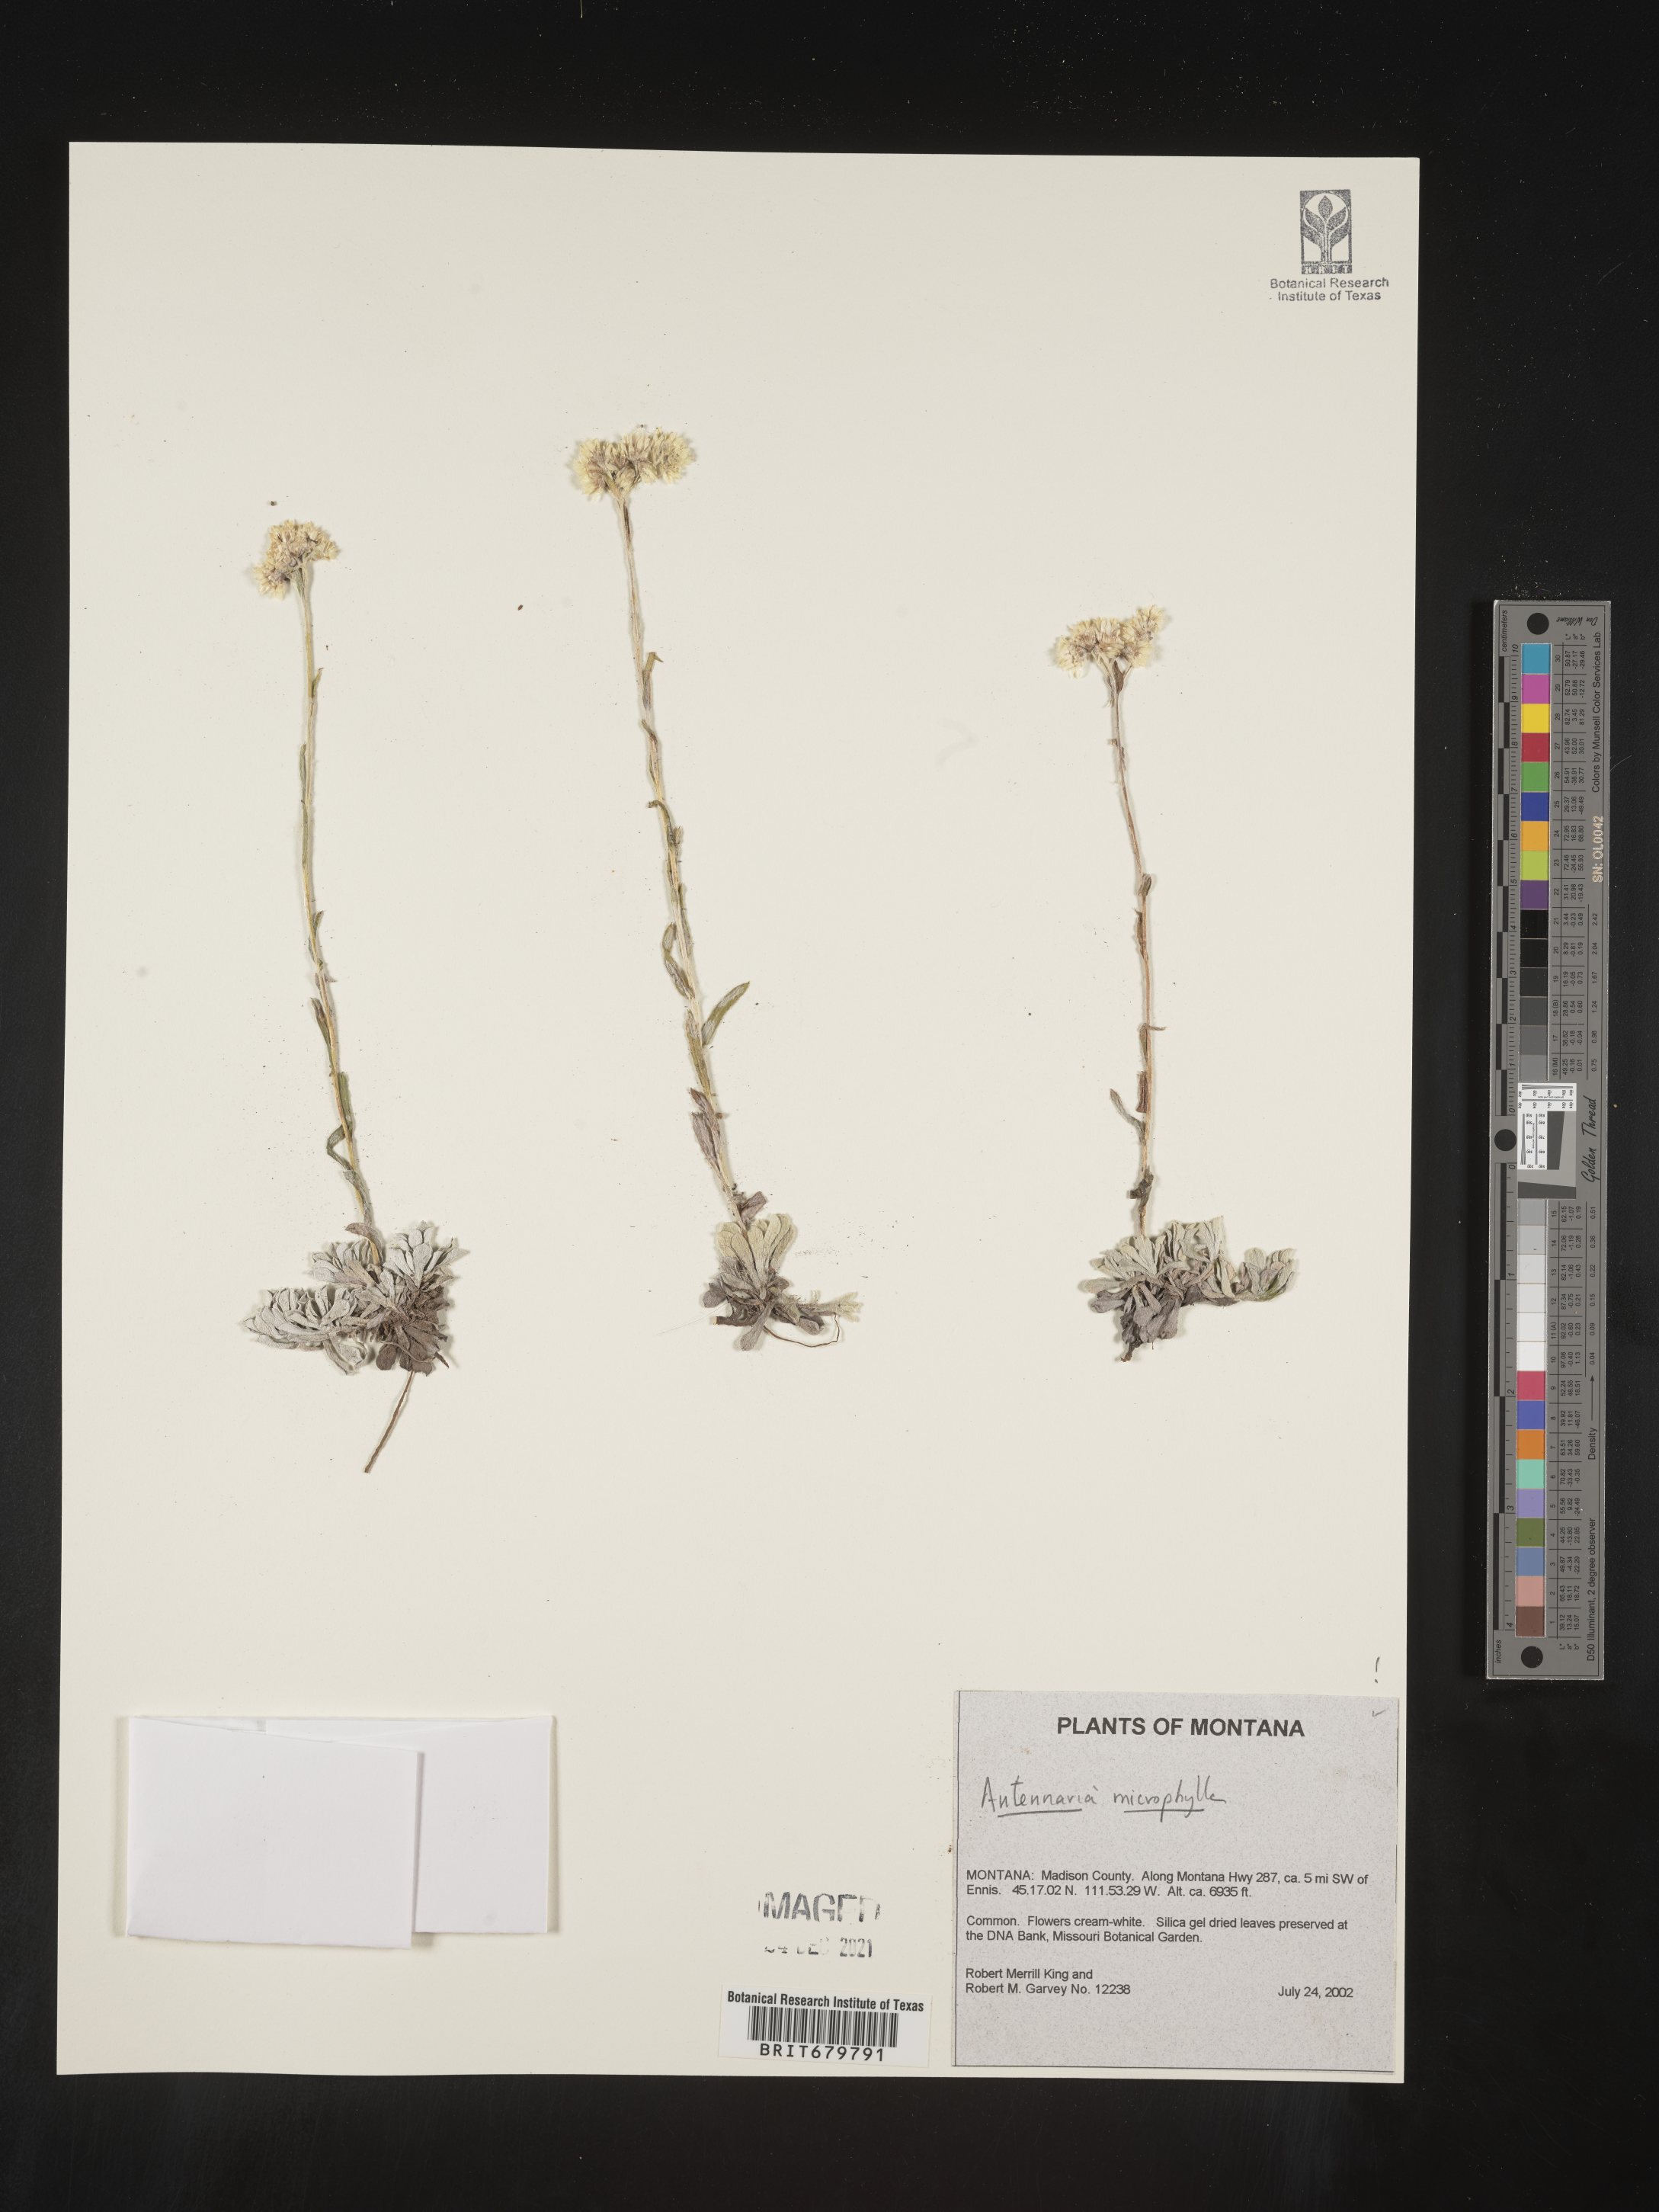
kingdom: Plantae
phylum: Tracheophyta
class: Magnoliopsida
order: Asterales
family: Asteraceae
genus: Antennaria
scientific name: Antennaria microphylla
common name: Littleleaf pussytoes
